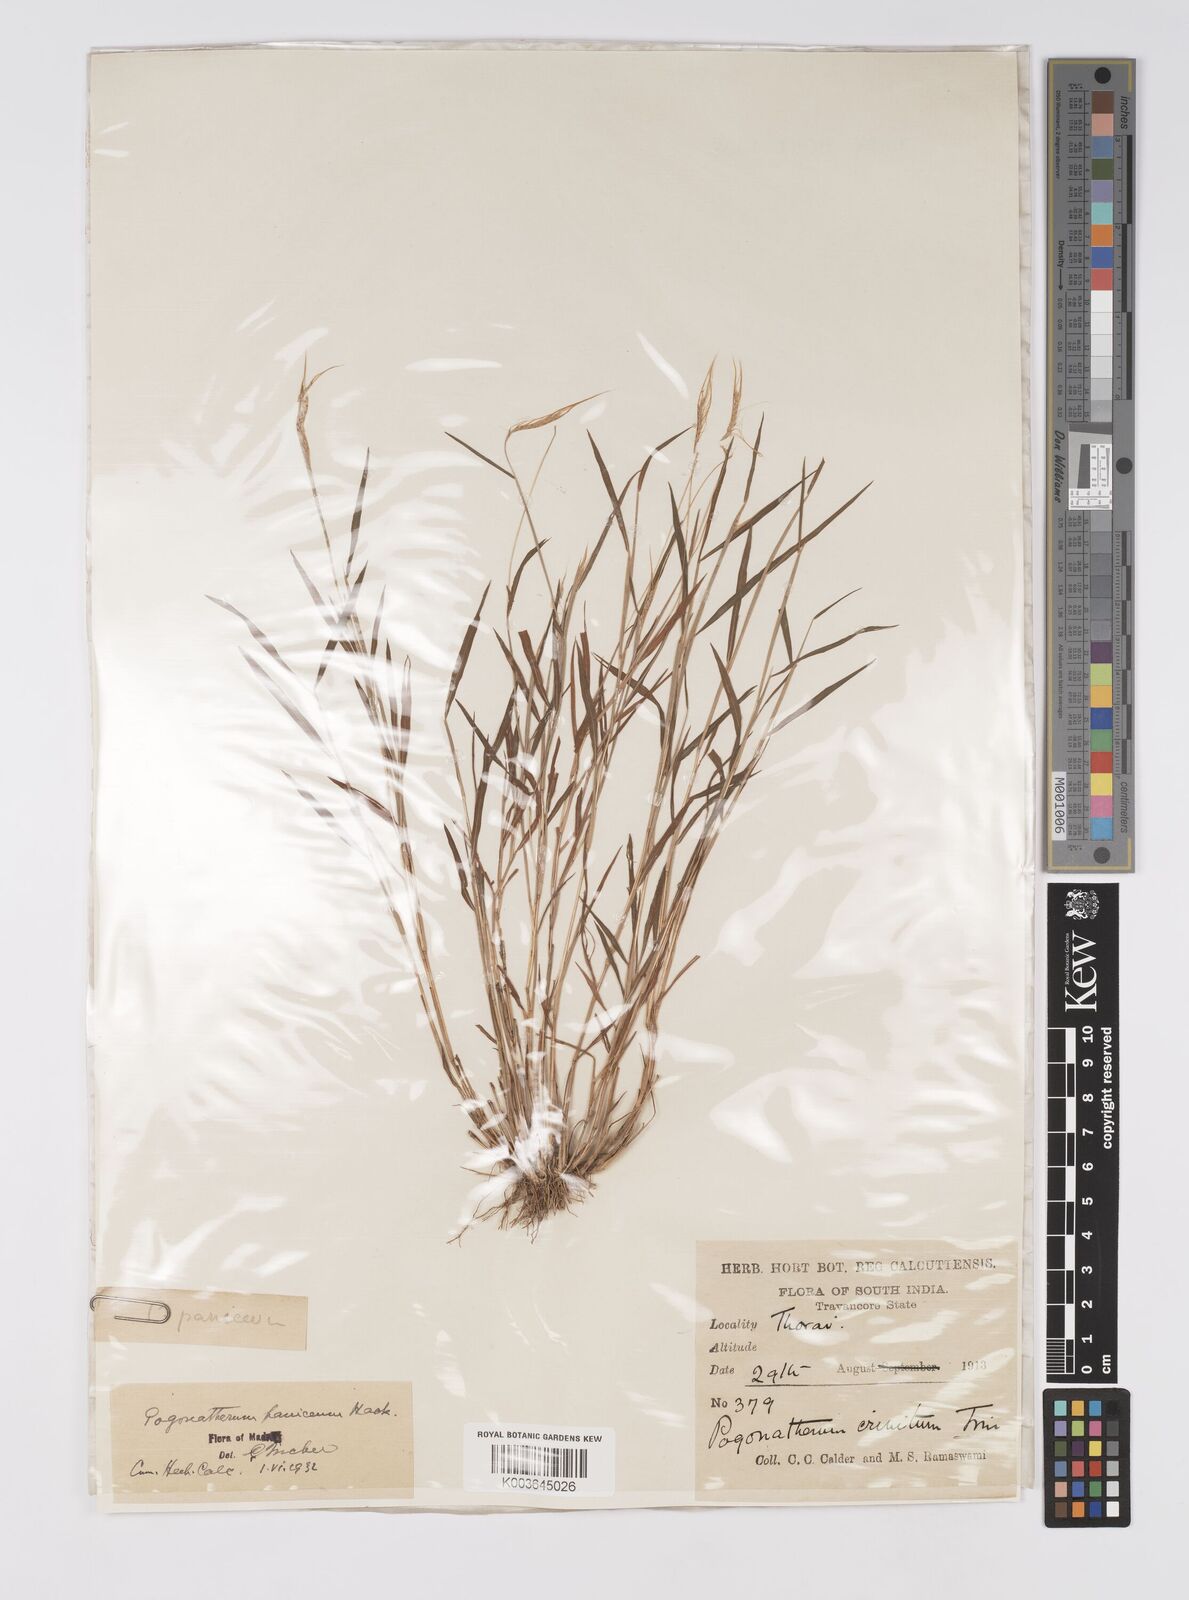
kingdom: Plantae
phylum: Tracheophyta
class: Liliopsida
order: Poales
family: Poaceae
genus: Pogonatherum
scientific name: Pogonatherum crinitum
